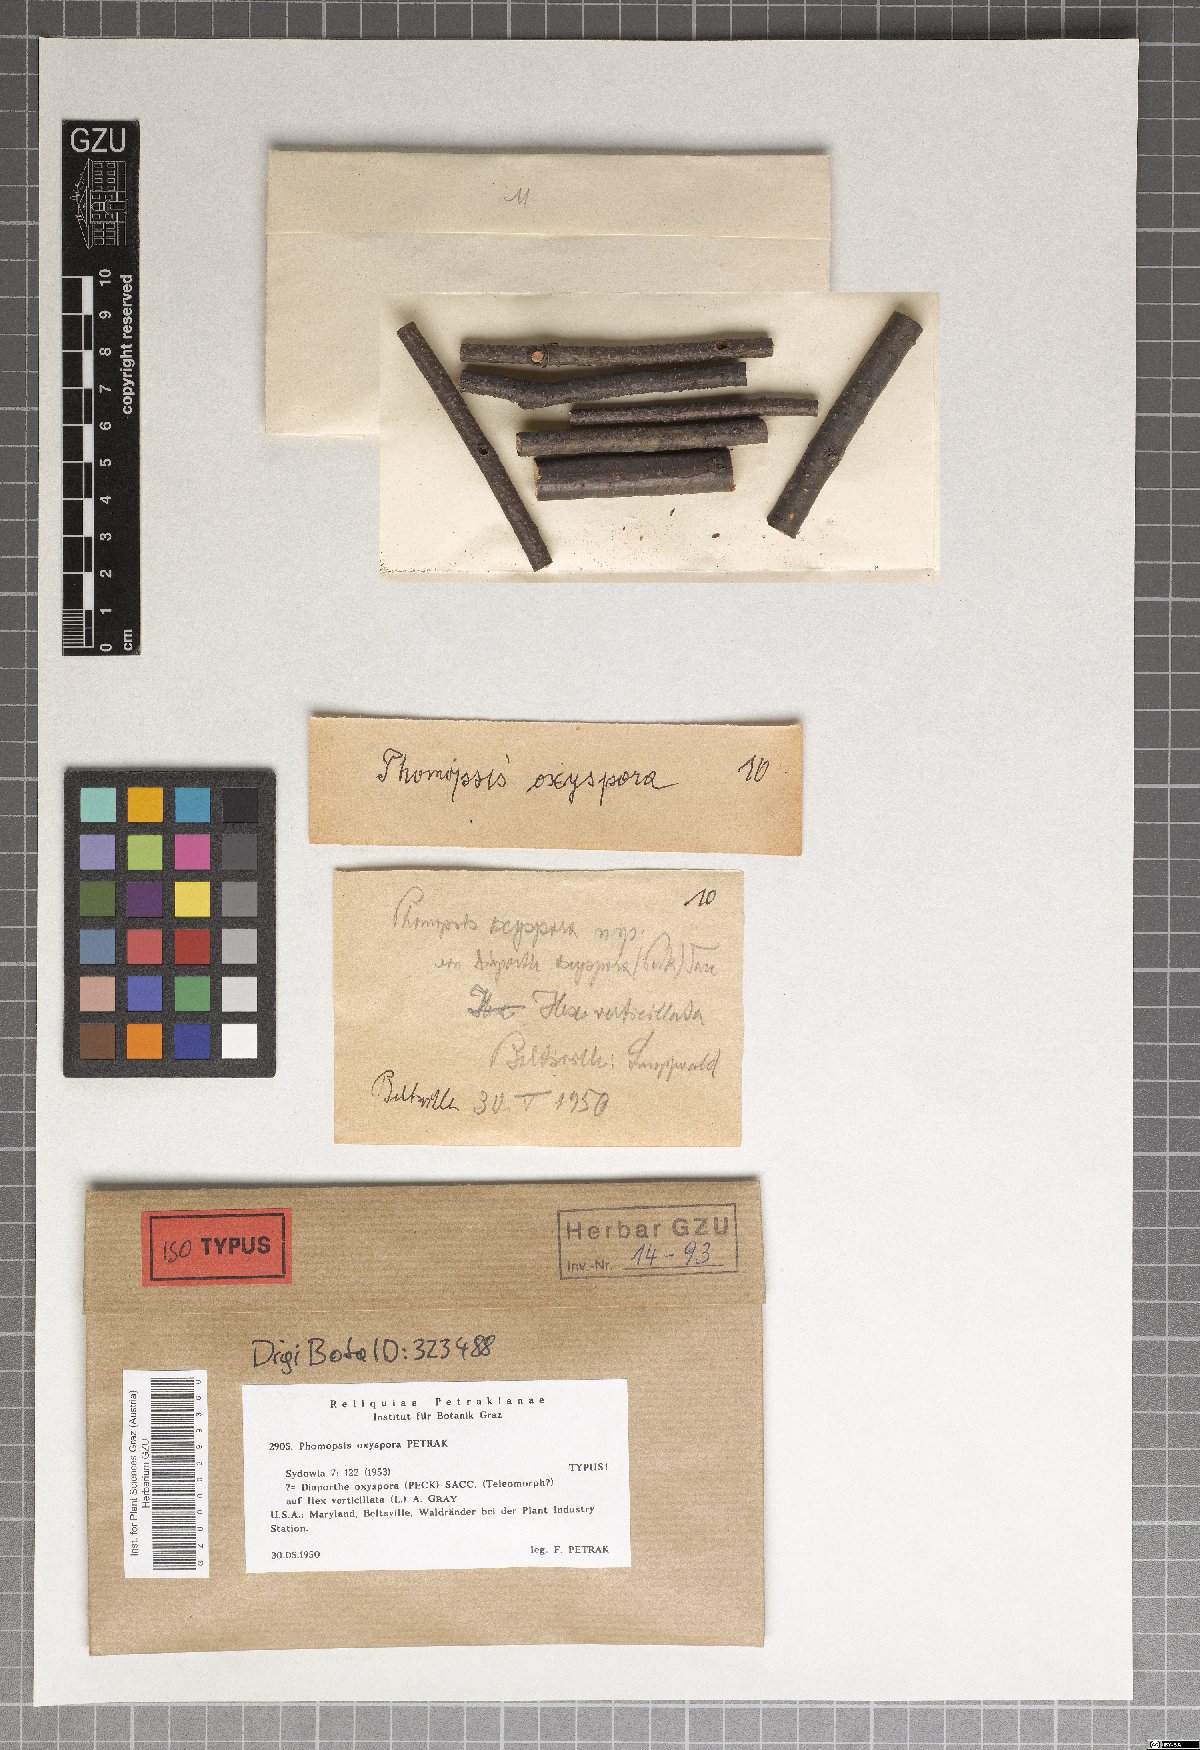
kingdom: Fungi
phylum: Ascomycota
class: Sordariomycetes
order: Diaporthales
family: Diaporthaceae
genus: Phomopsis
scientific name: Phomopsis oxyspora
